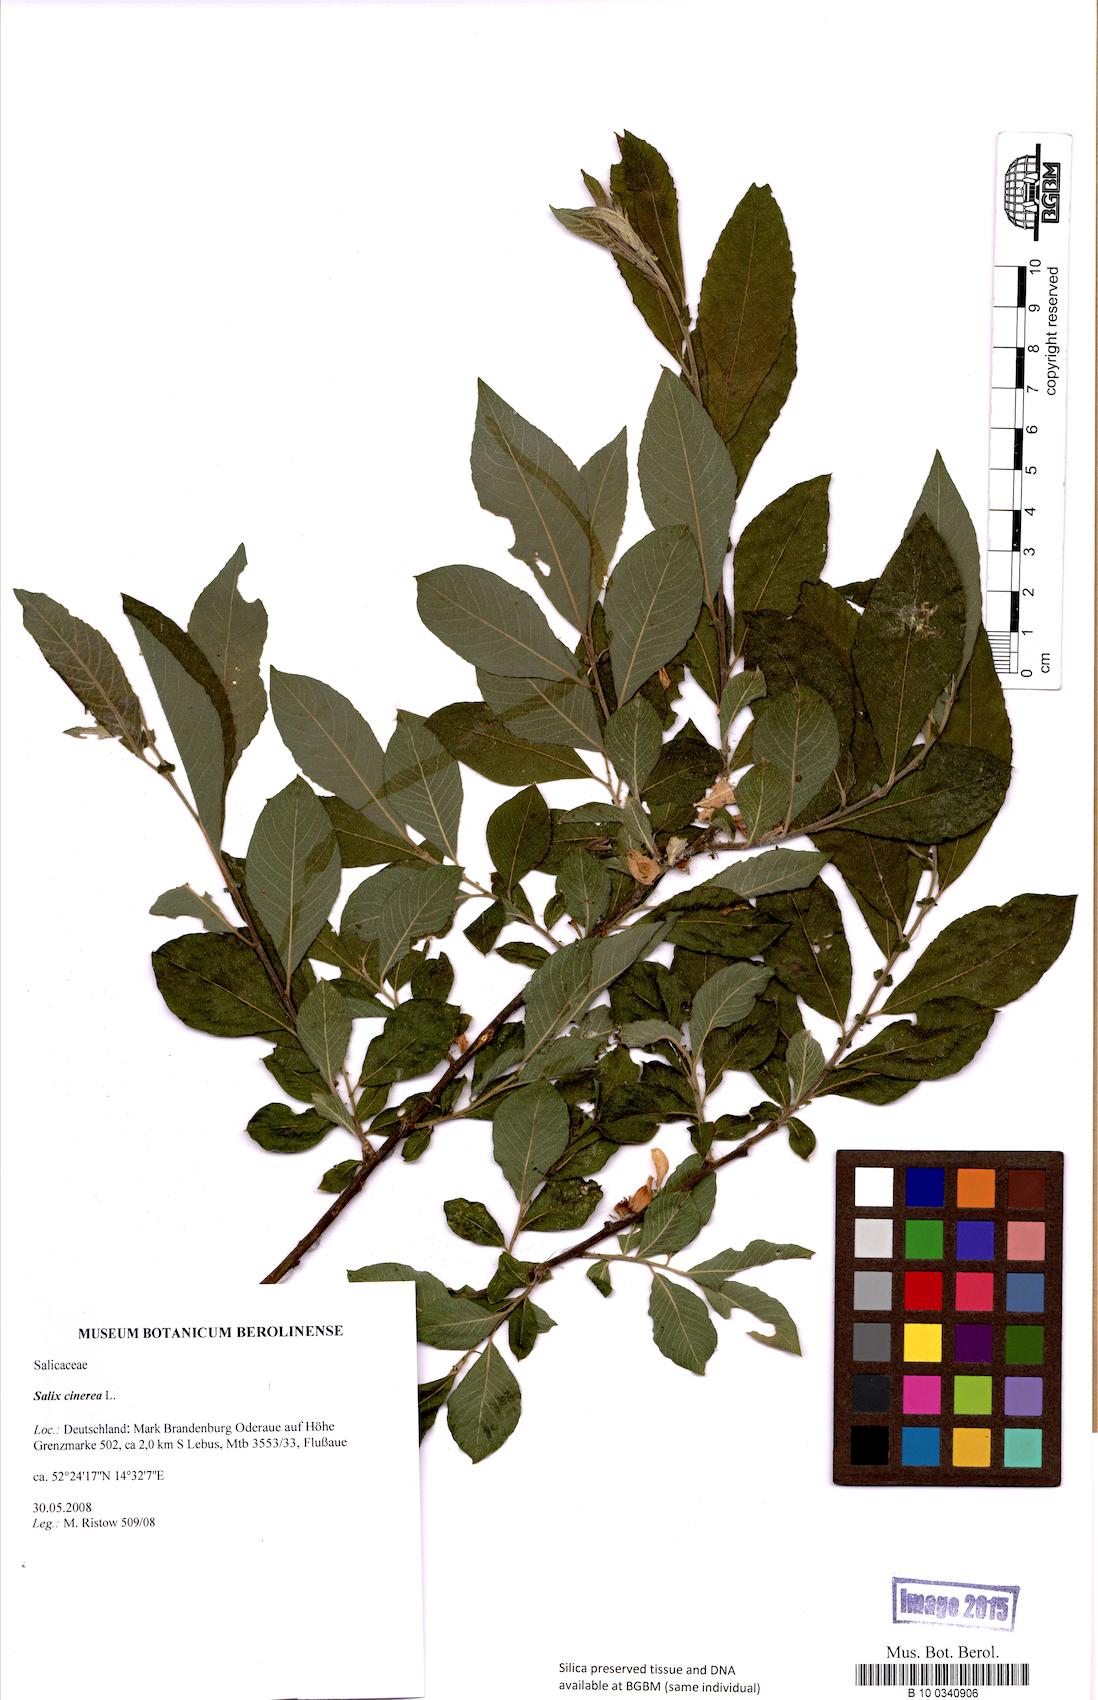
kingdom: Plantae
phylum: Tracheophyta
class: Magnoliopsida
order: Malpighiales
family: Salicaceae
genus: Salix
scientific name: Salix cinerea
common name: Common sallow
